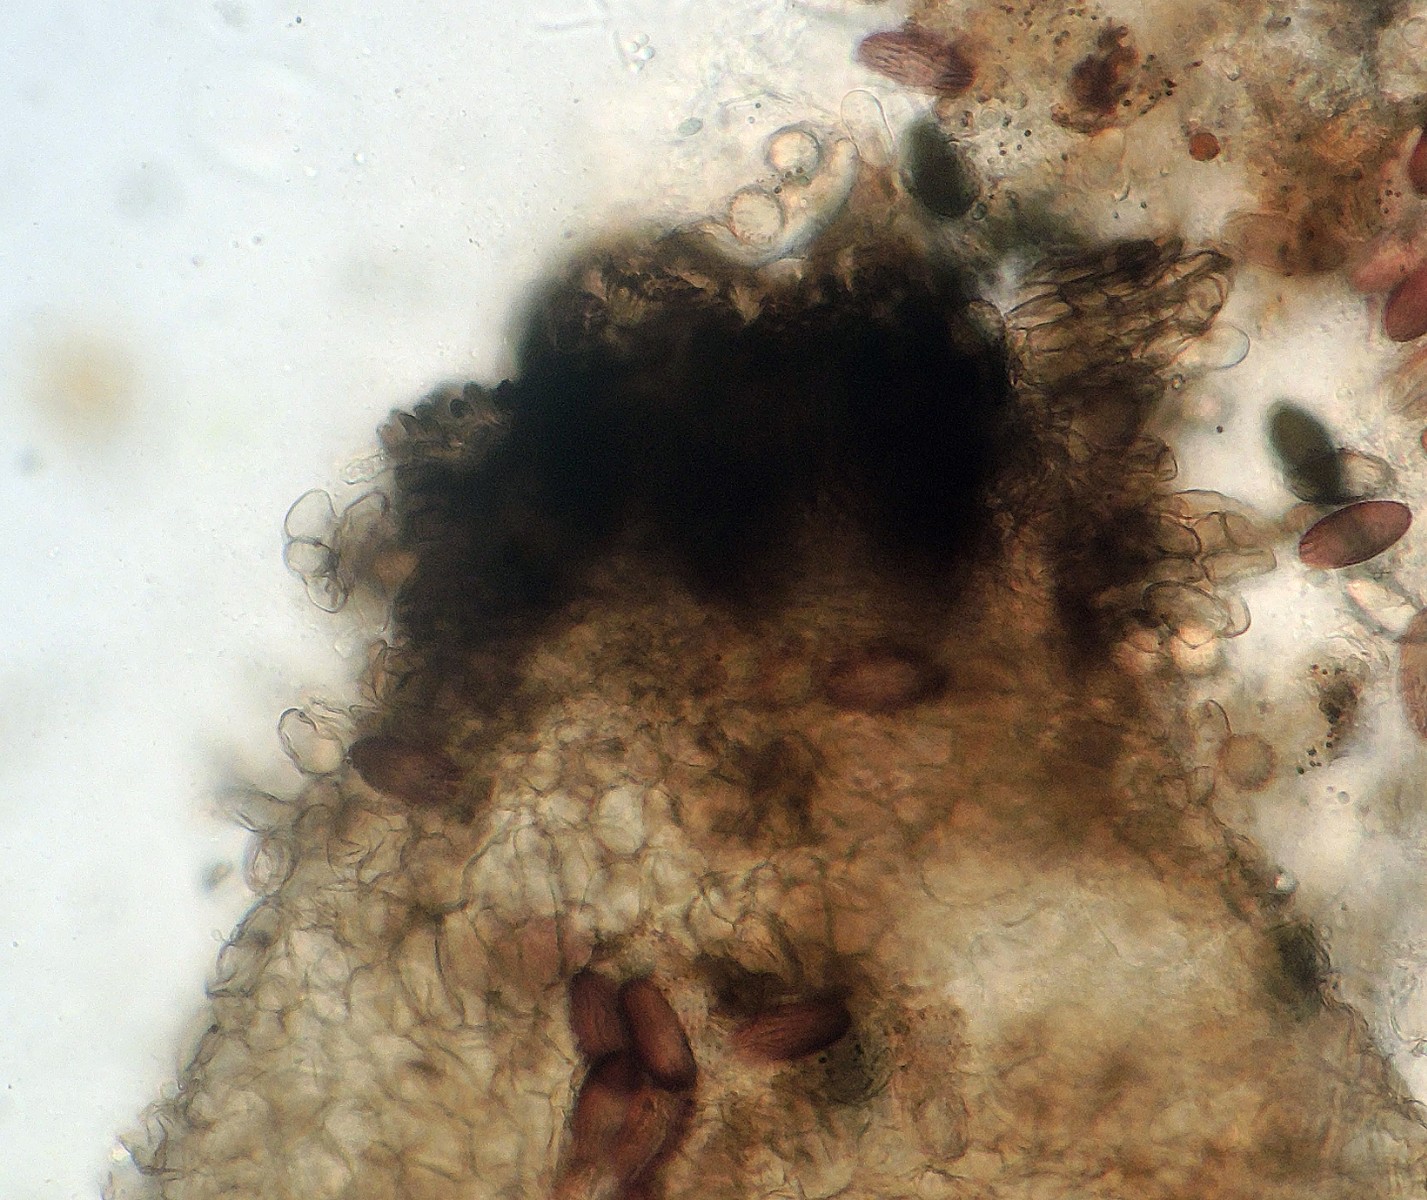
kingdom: Fungi
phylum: Ascomycota
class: Sordariomycetes
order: Sordariales
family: Neoschizotheciaceae
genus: Neoschizothecium
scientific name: Neoschizothecium conicum
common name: kegle-kernesvamp
